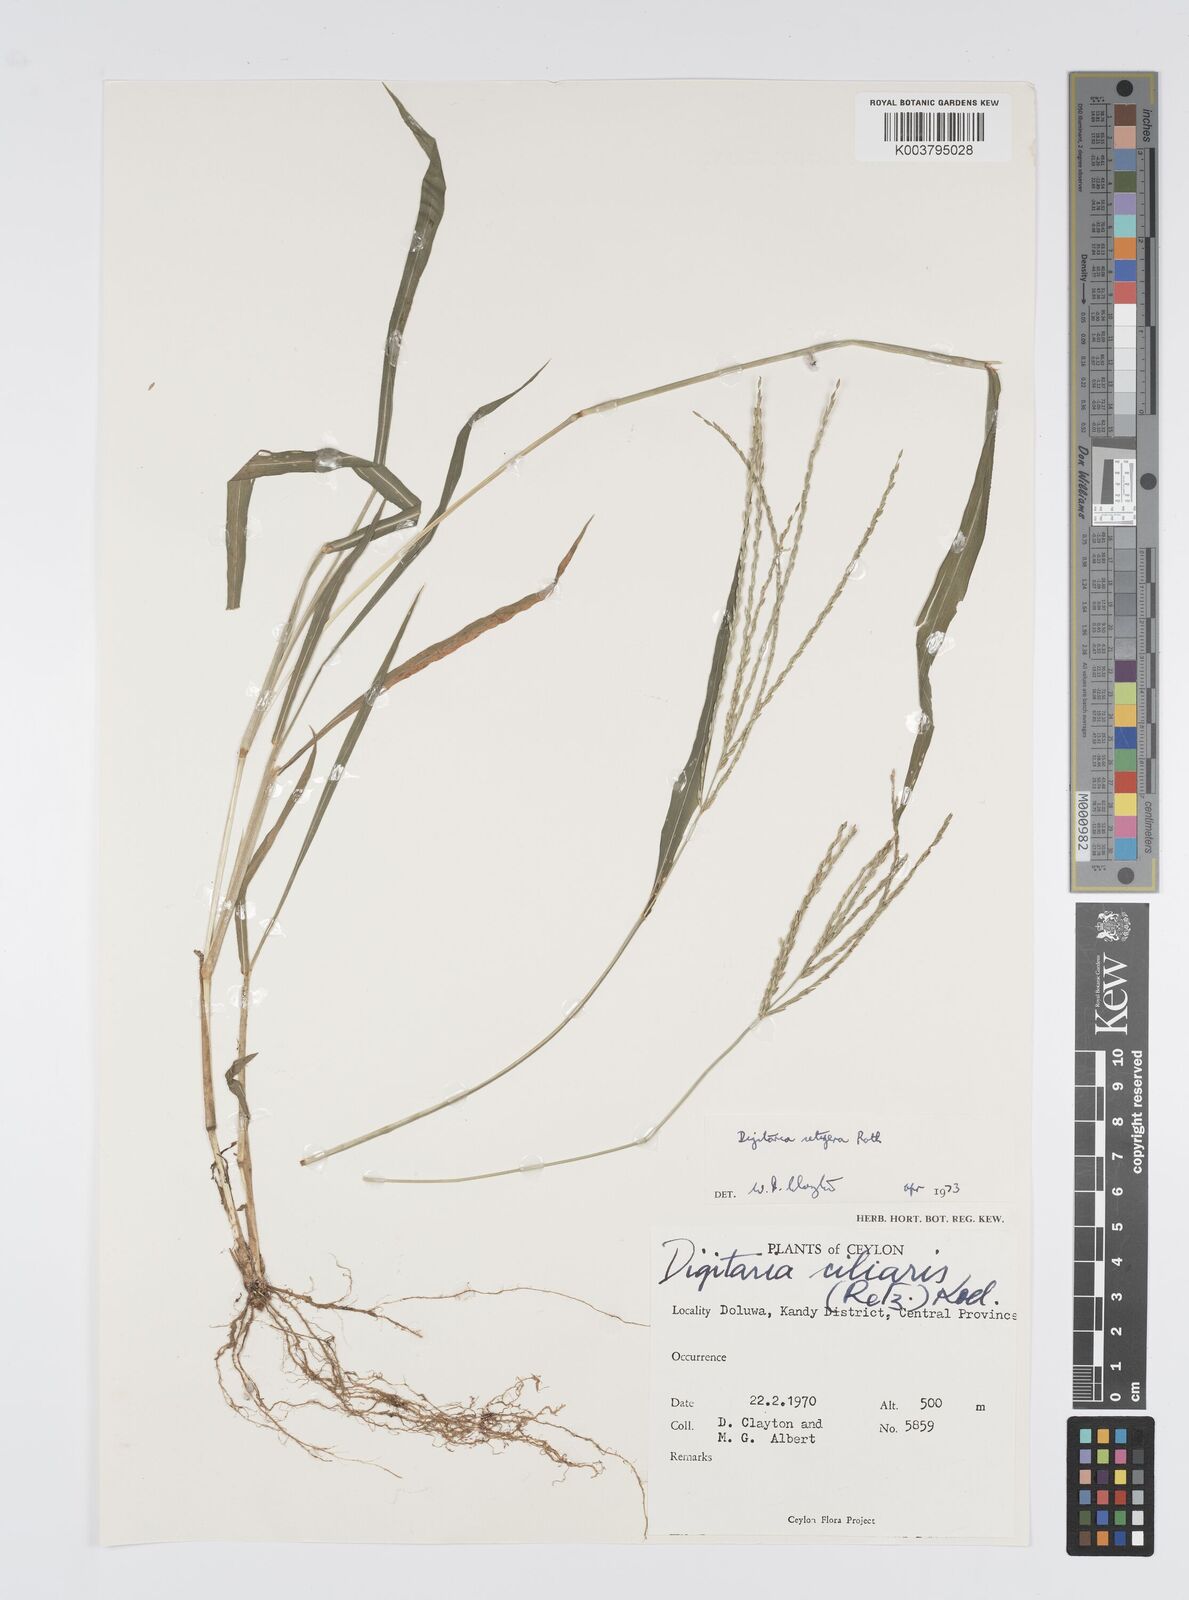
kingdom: Plantae
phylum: Tracheophyta
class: Liliopsida
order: Poales
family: Poaceae
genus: Digitaria
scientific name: Digitaria setigera
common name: East indian crabgrass
